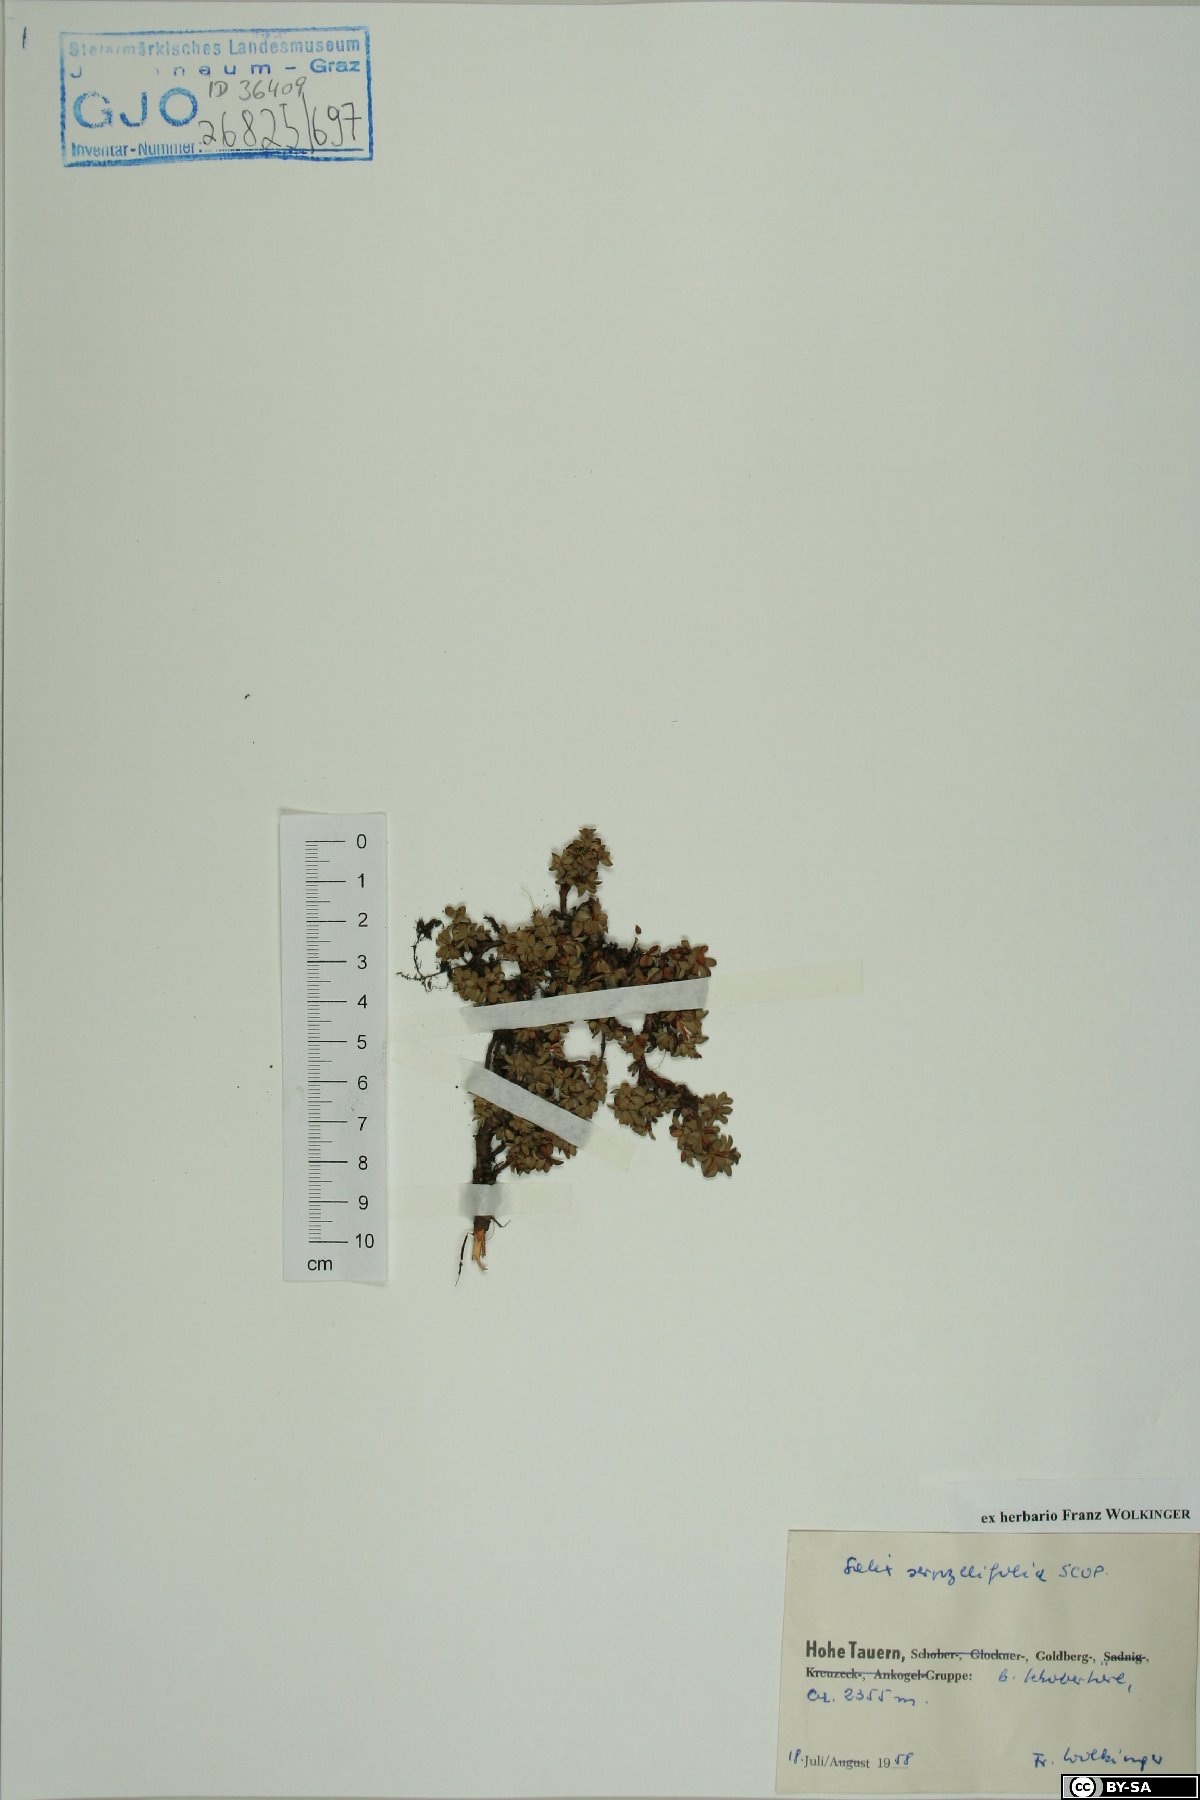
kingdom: Plantae
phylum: Tracheophyta
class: Magnoliopsida
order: Malpighiales
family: Salicaceae
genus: Salix
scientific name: Salix serpillifolia
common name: Thyme-leaf willow
